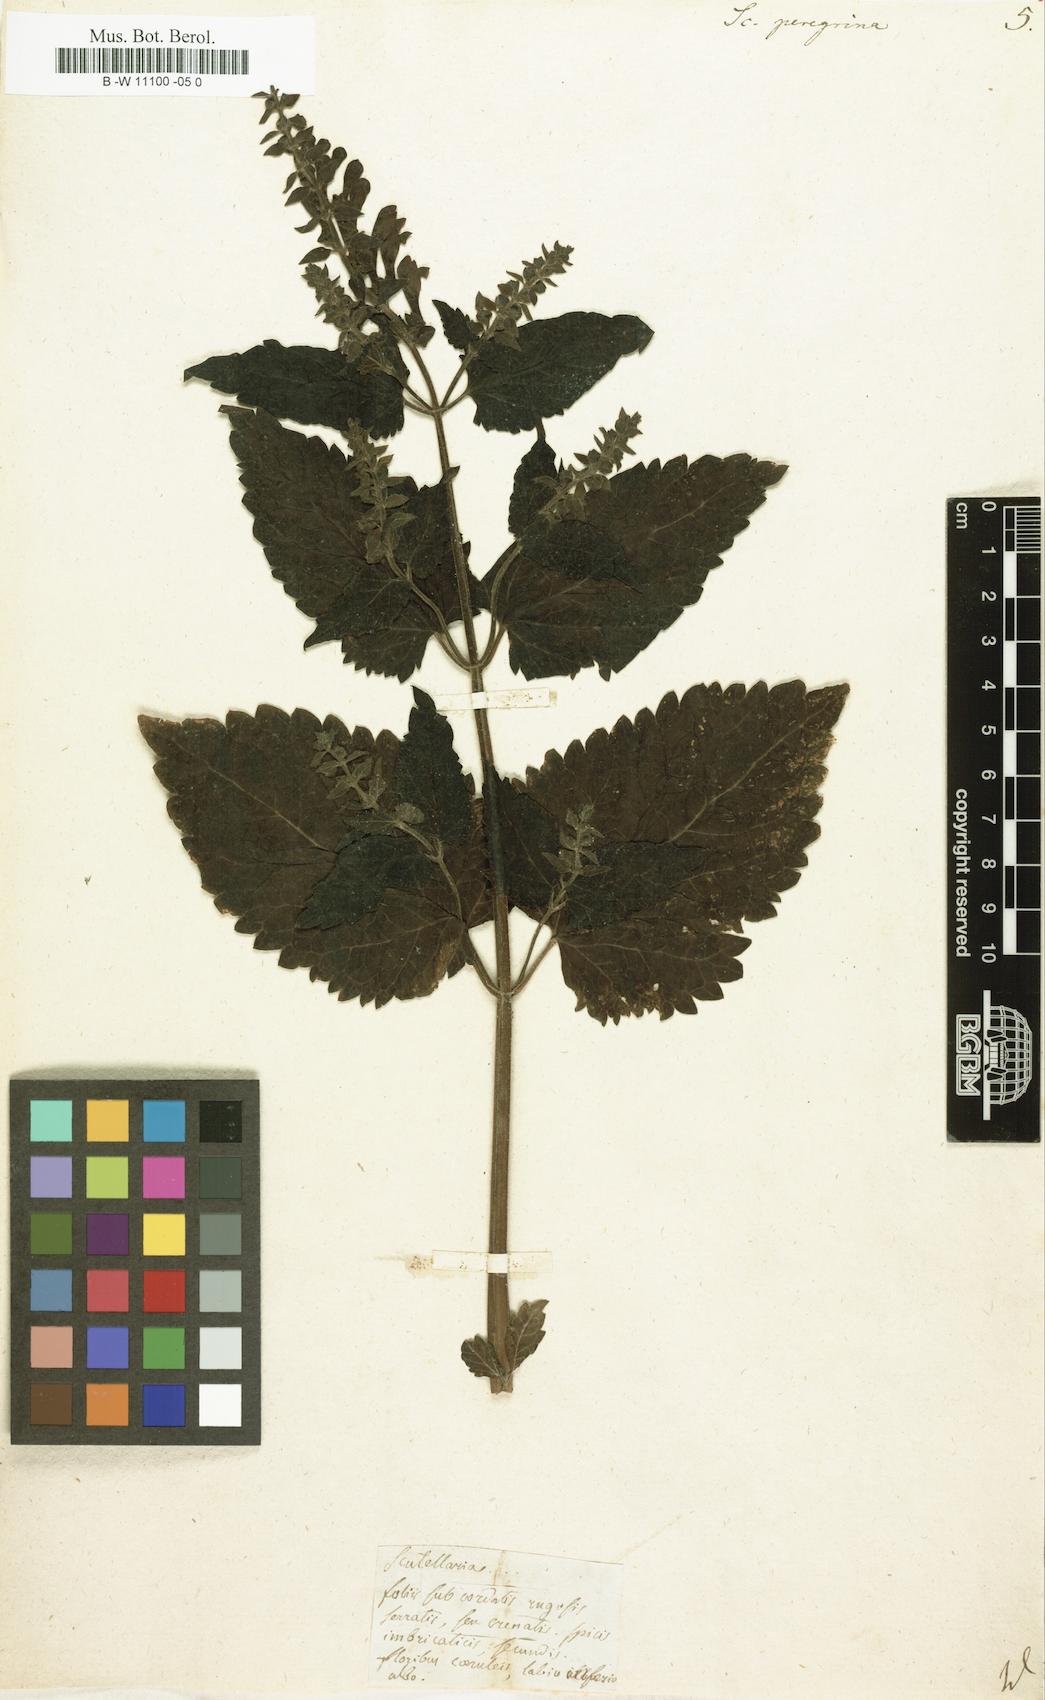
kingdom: Plantae
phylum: Tracheophyta
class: Magnoliopsida
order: Lamiales
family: Lamiaceae
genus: Scutellaria
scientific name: Scutellaria peregrina
